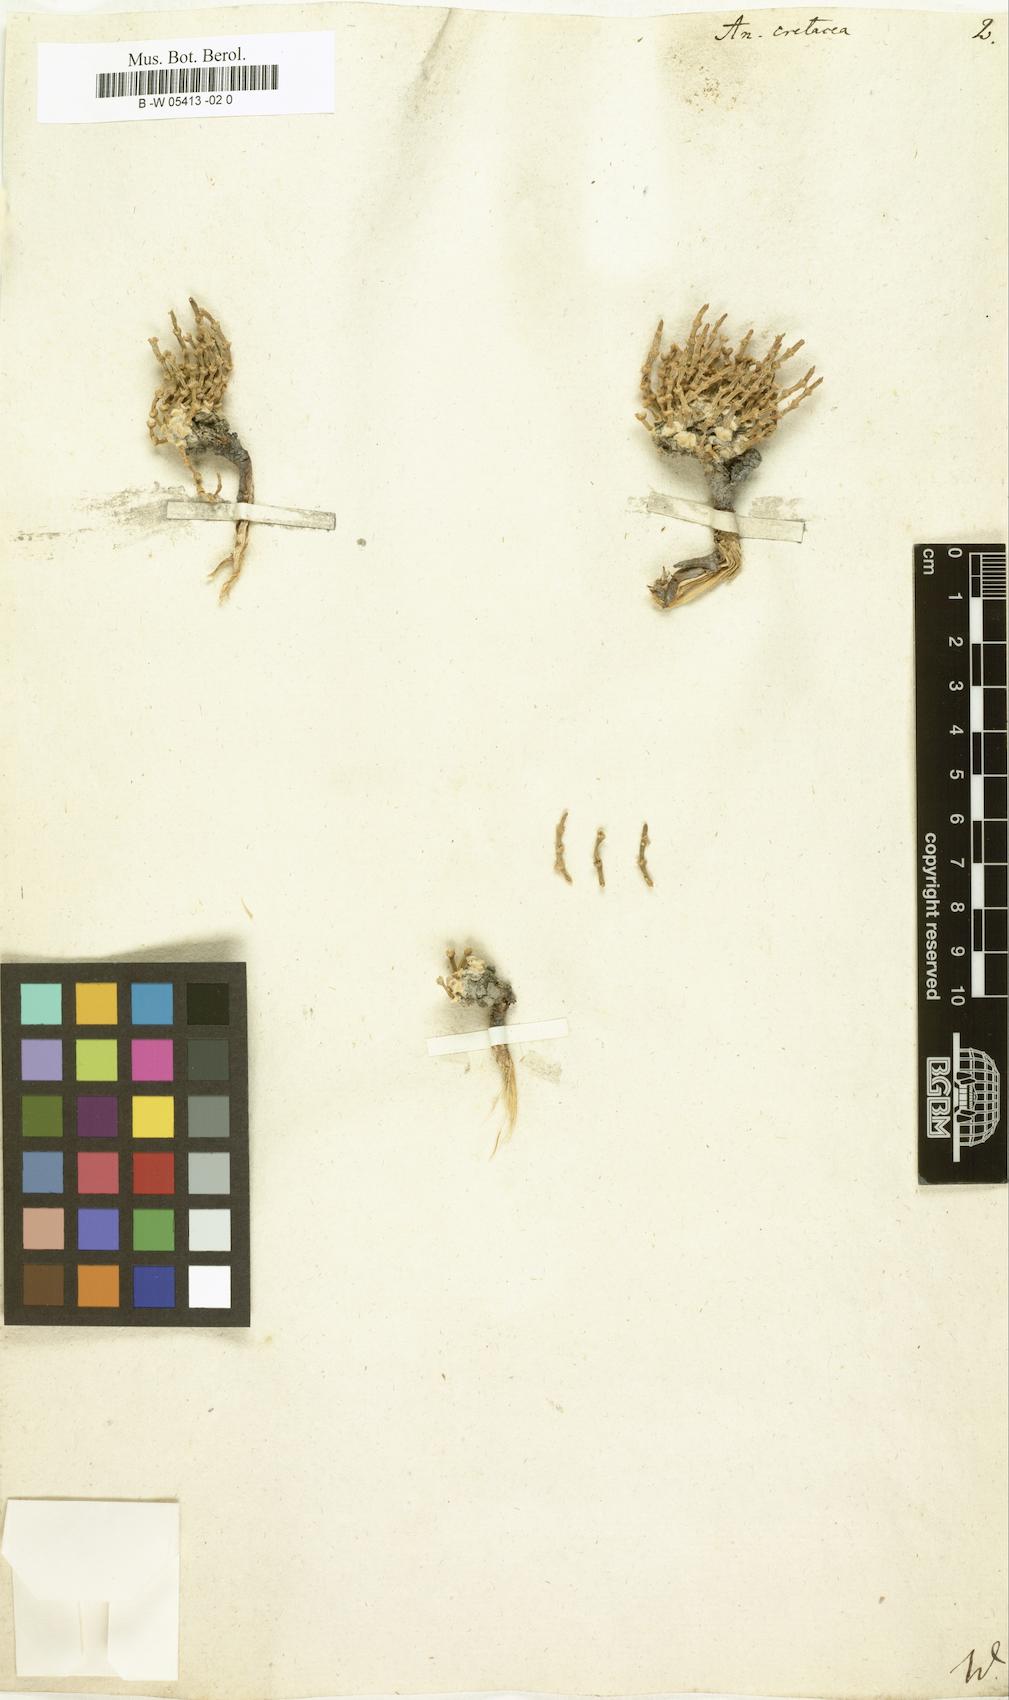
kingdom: Plantae
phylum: Tracheophyta
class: Magnoliopsida
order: Caryophyllales
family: Amaranthaceae
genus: Anabasis
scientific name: Anabasis cretacea
